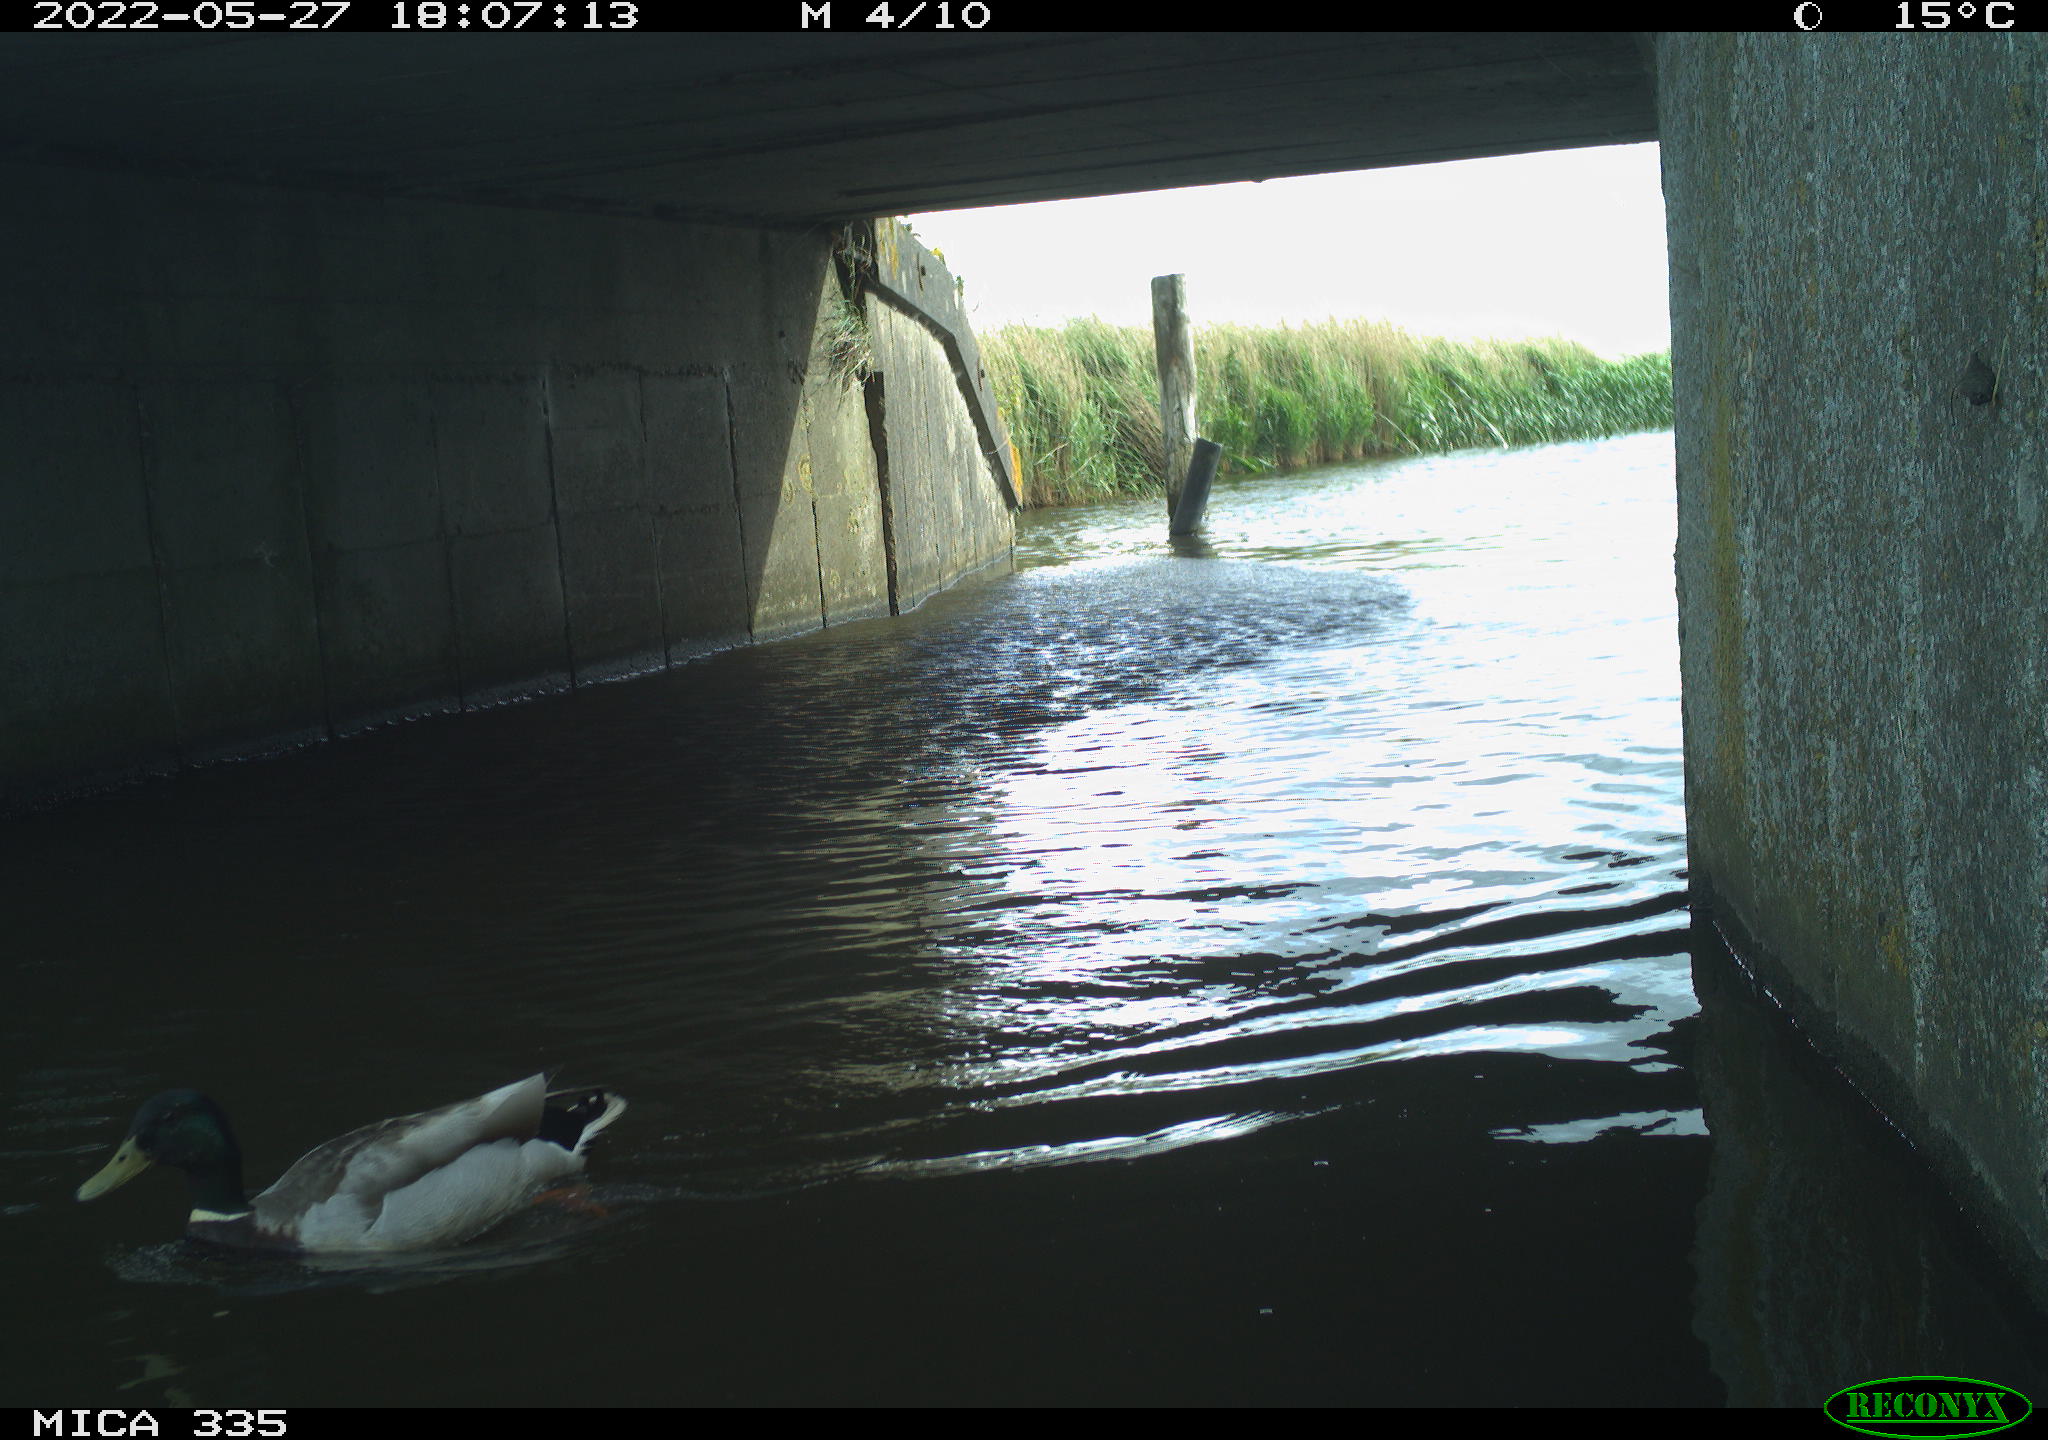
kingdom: Animalia
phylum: Chordata
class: Aves
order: Anseriformes
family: Anatidae
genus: Anas
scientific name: Anas platyrhynchos
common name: Mallard
